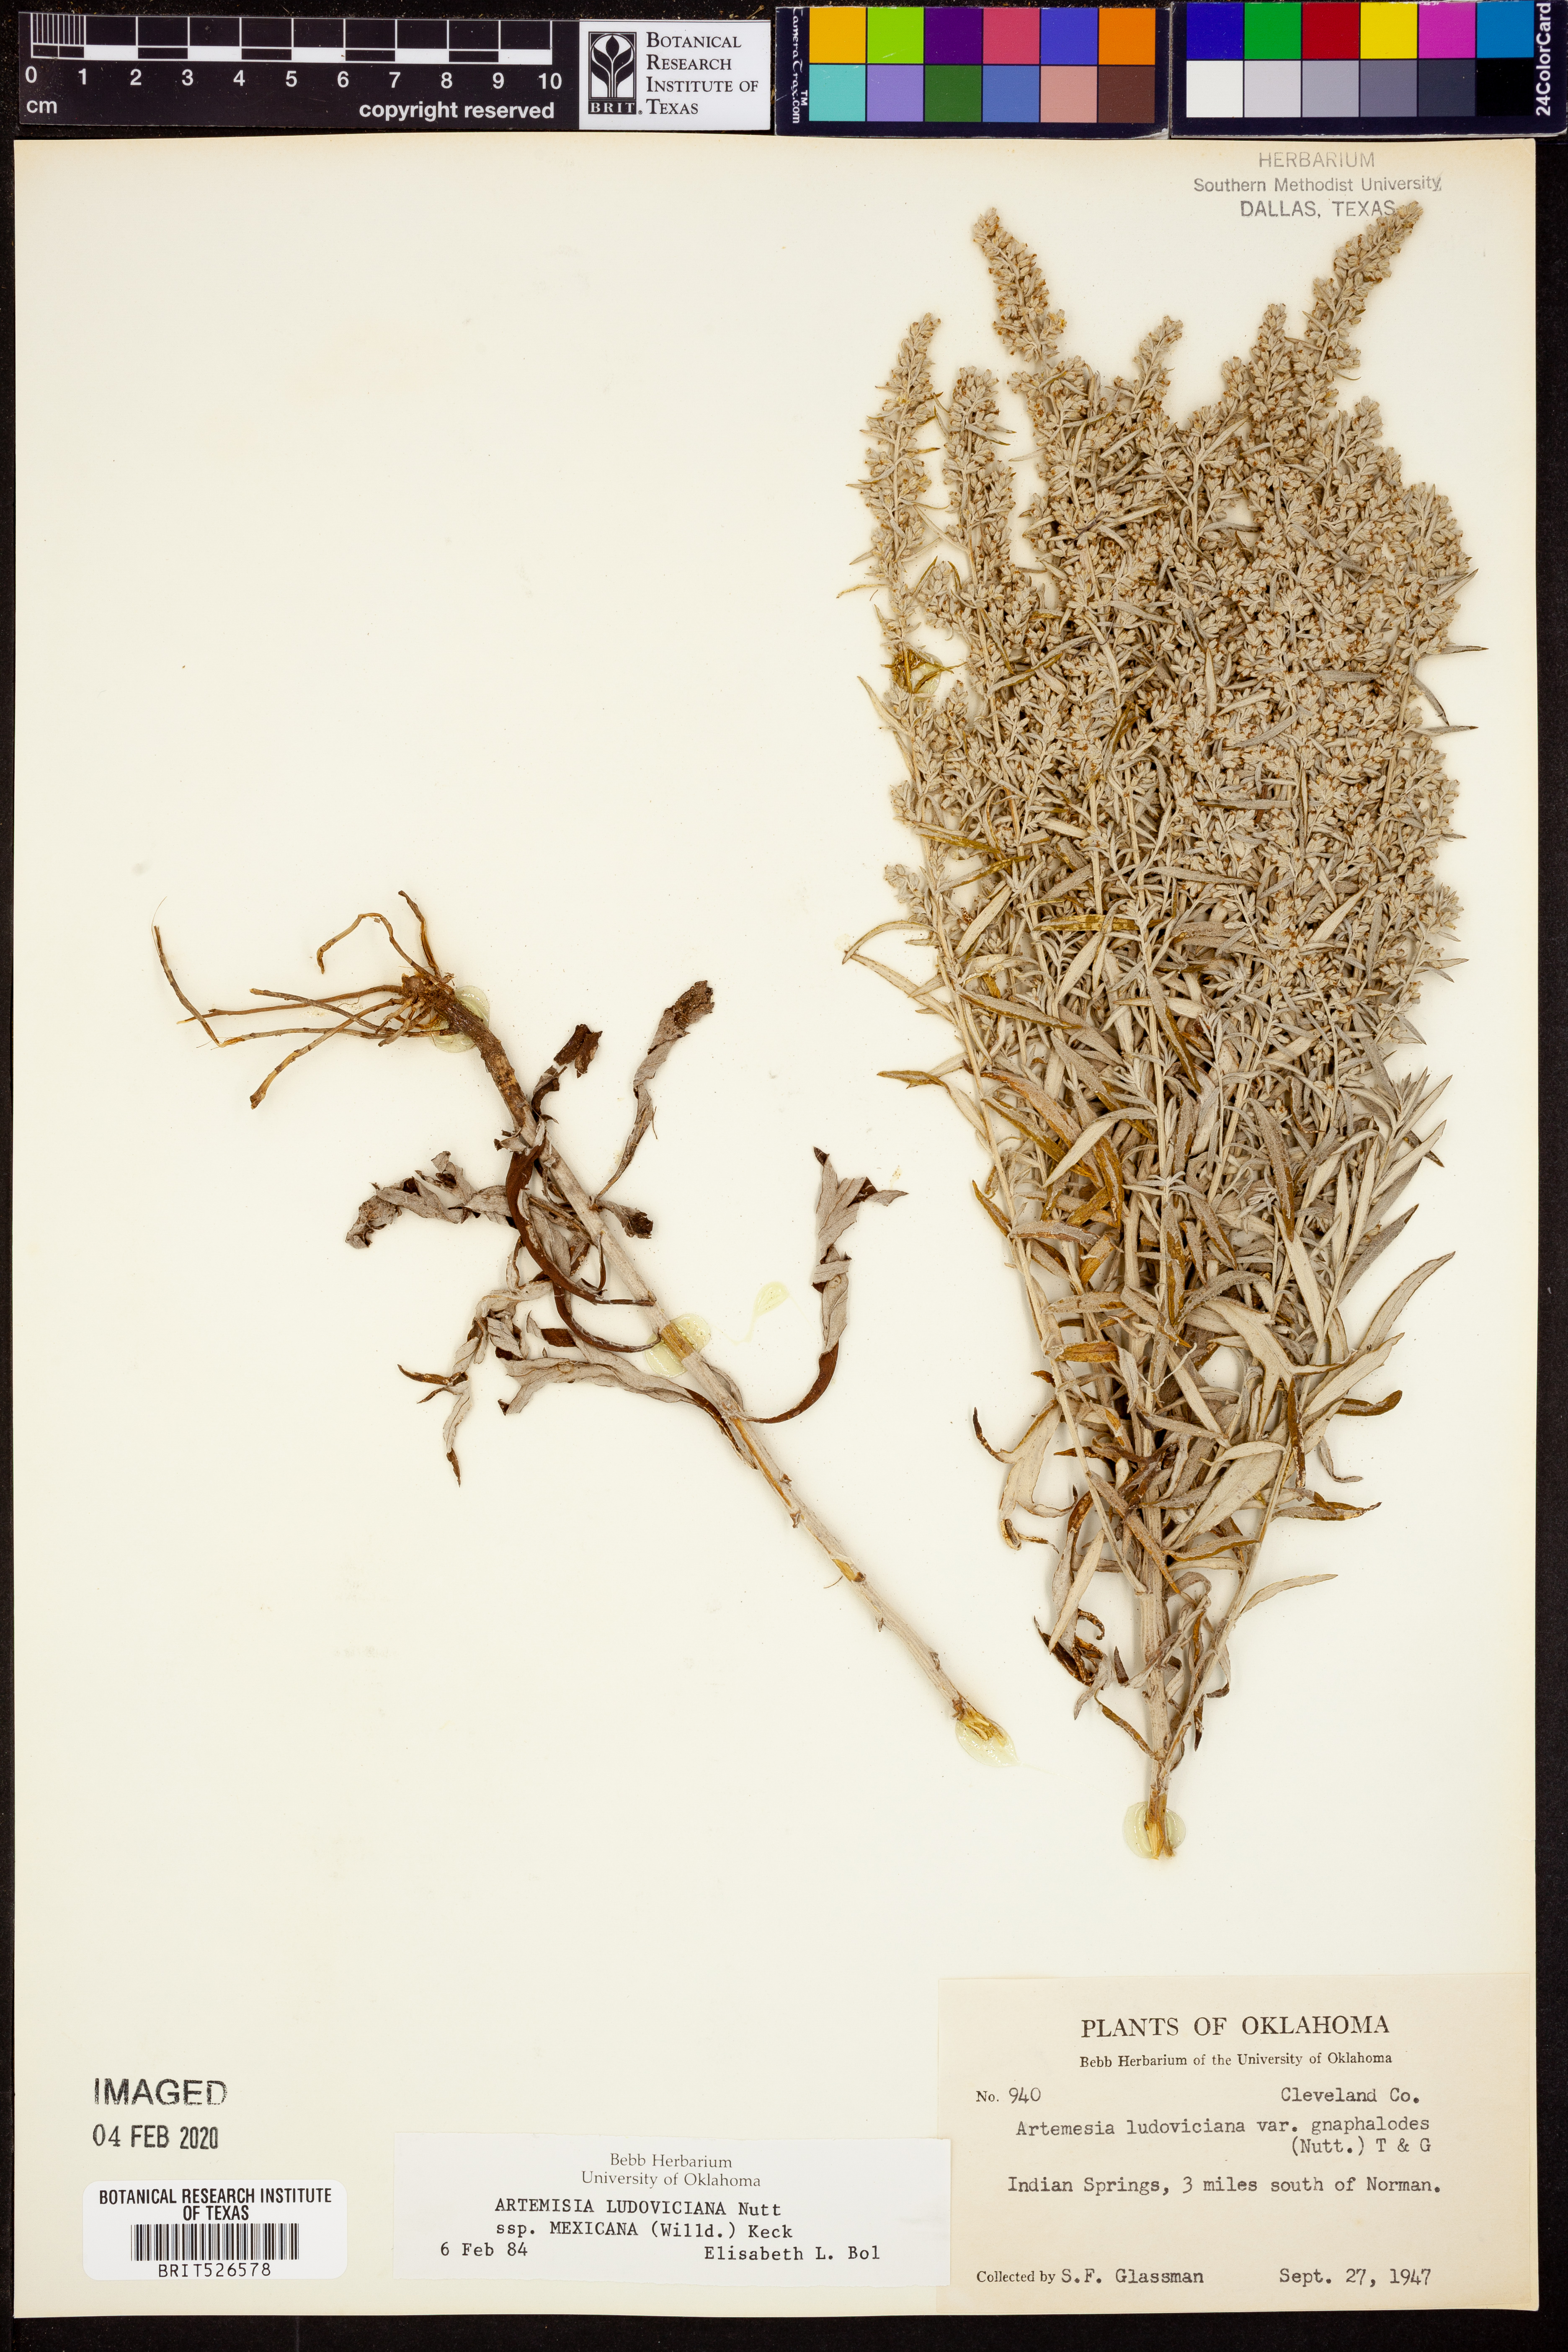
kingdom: Plantae
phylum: Tracheophyta
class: Magnoliopsida
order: Asterales
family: Asteraceae
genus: Artemisia
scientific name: Artemisia ludoviciana
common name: Western mugwort
